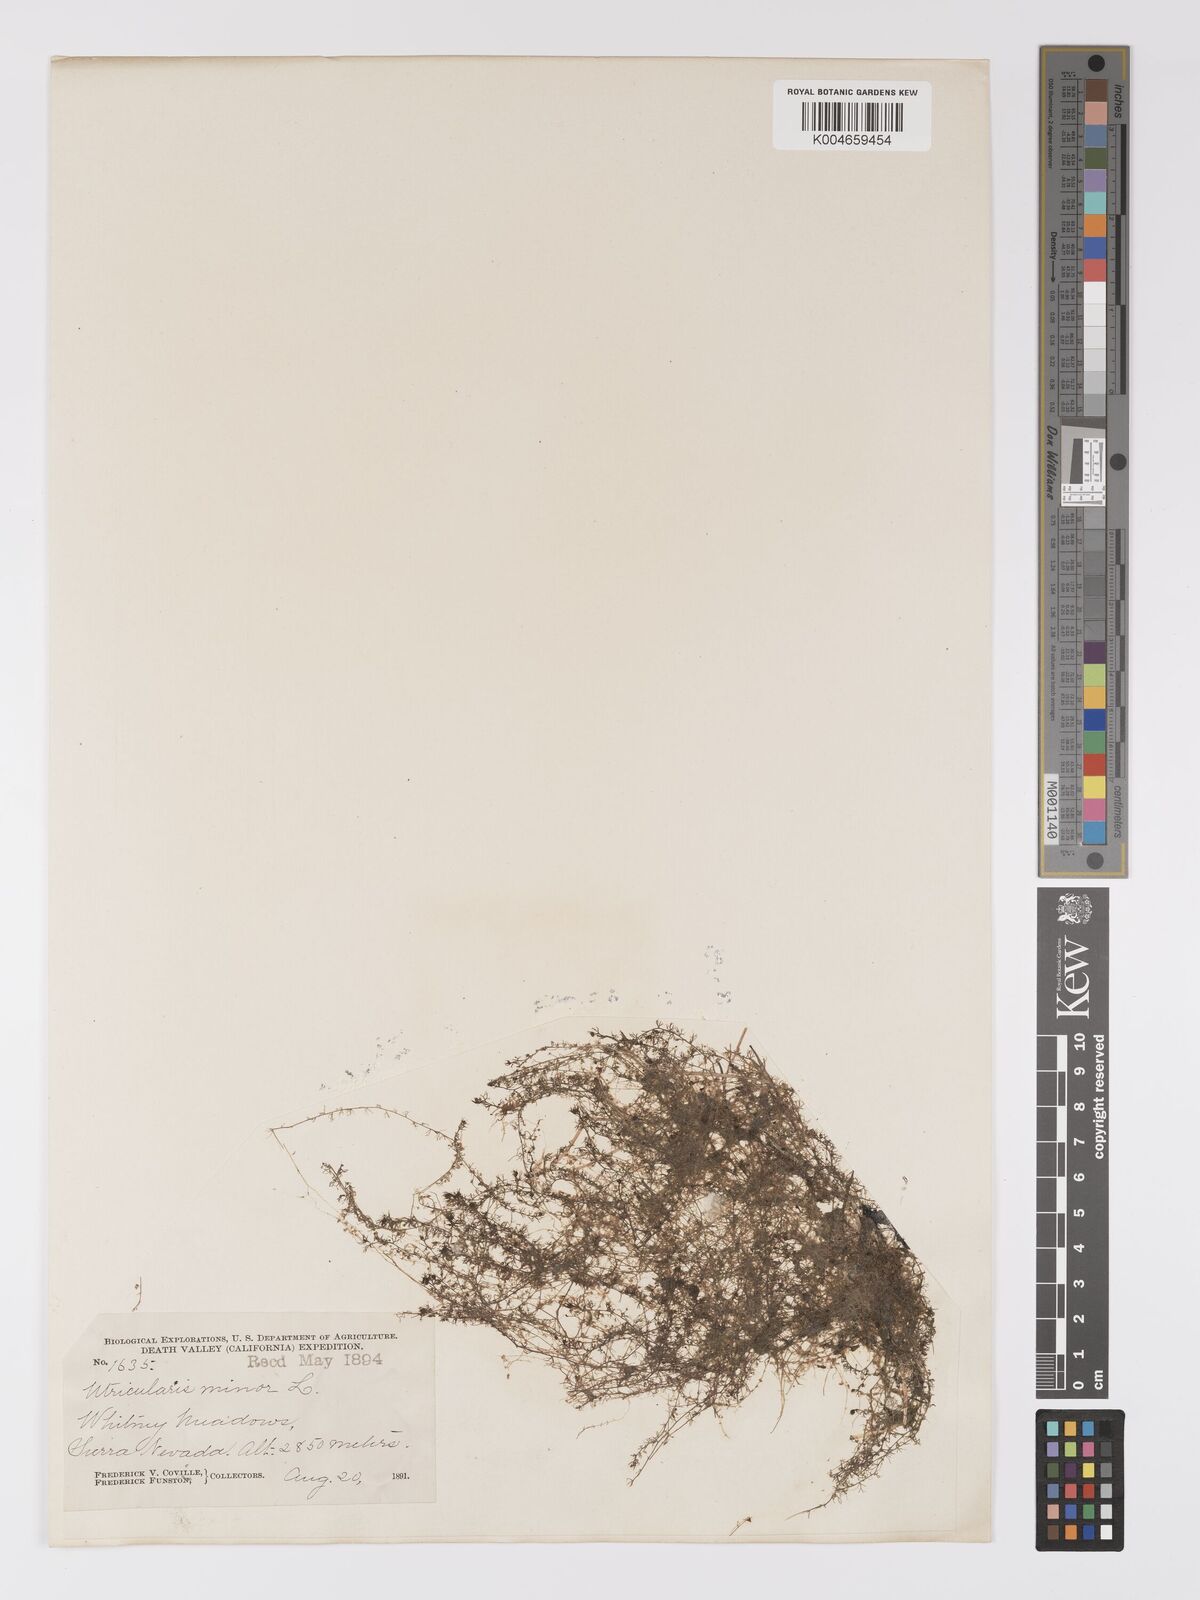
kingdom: Plantae
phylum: Tracheophyta
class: Magnoliopsida
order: Lamiales
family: Lentibulariaceae
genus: Utricularia
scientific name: Utricularia minor
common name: Lesser bladderwort
